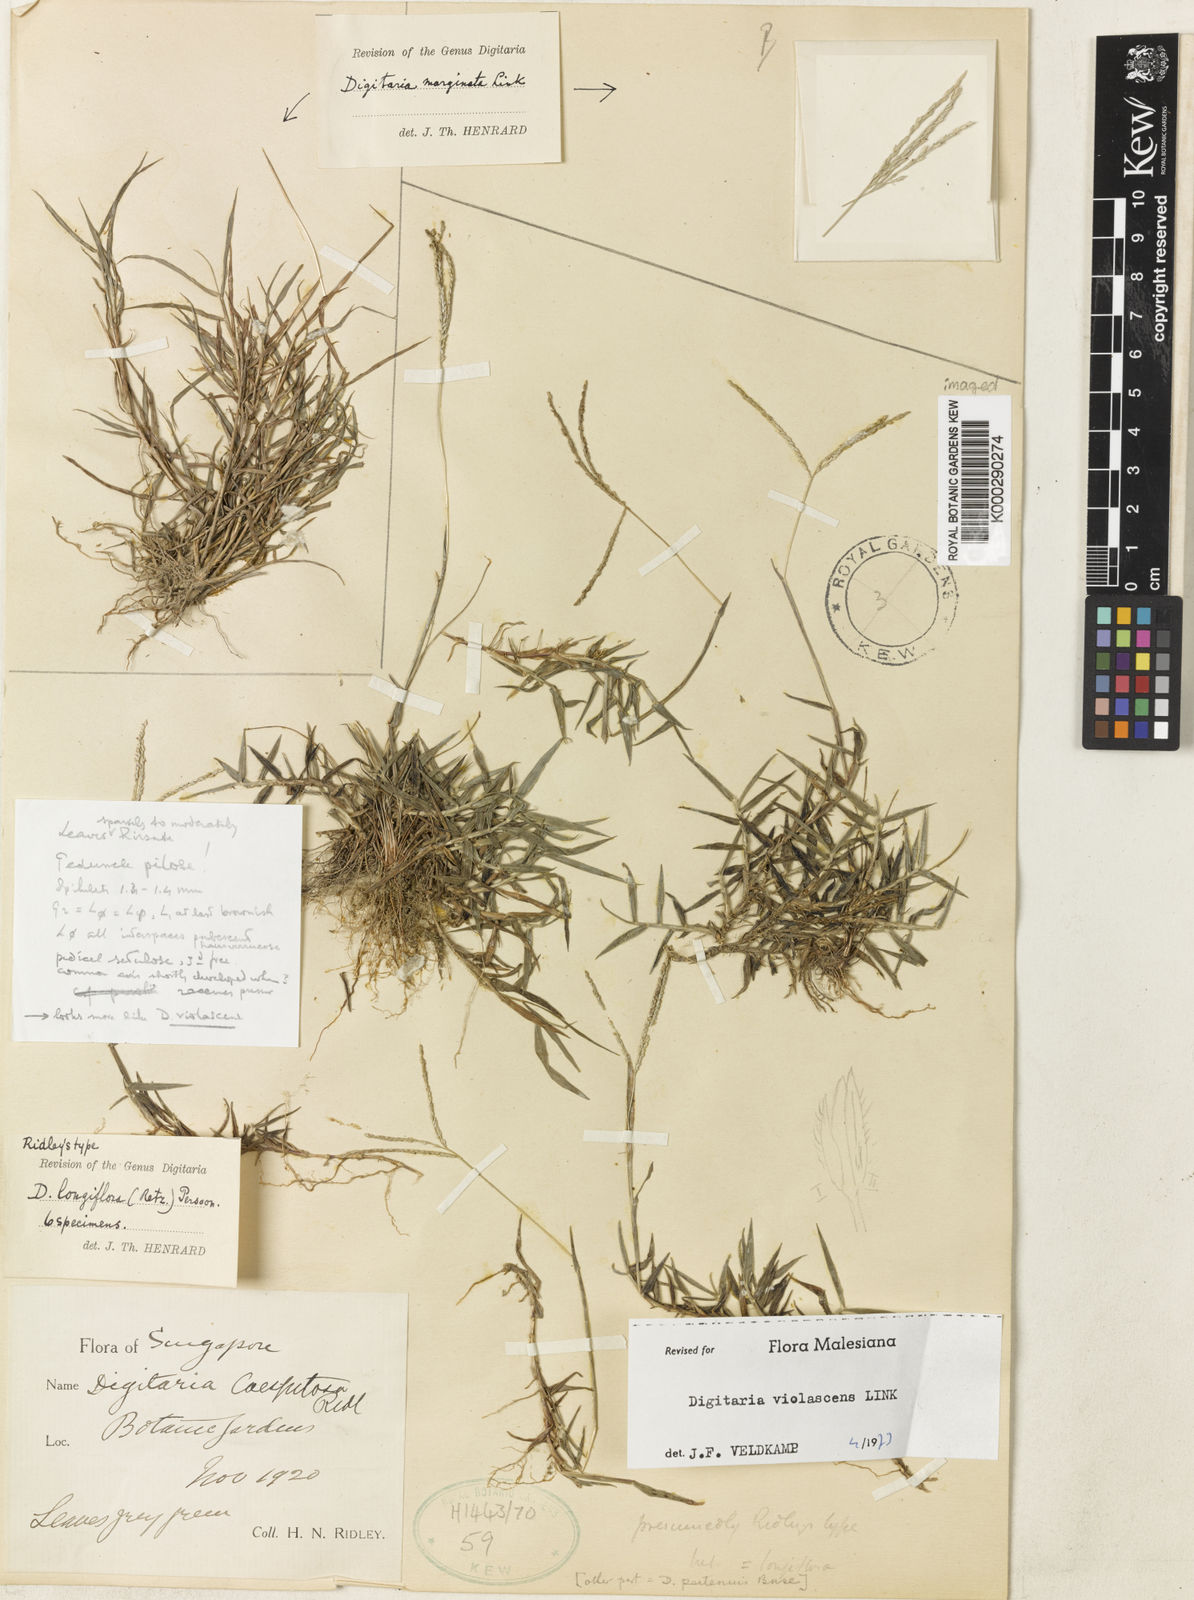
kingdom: Plantae
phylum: Tracheophyta
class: Liliopsida
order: Poales
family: Poaceae
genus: Digitaria
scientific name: Digitaria violascens
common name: Violet crabgrass
